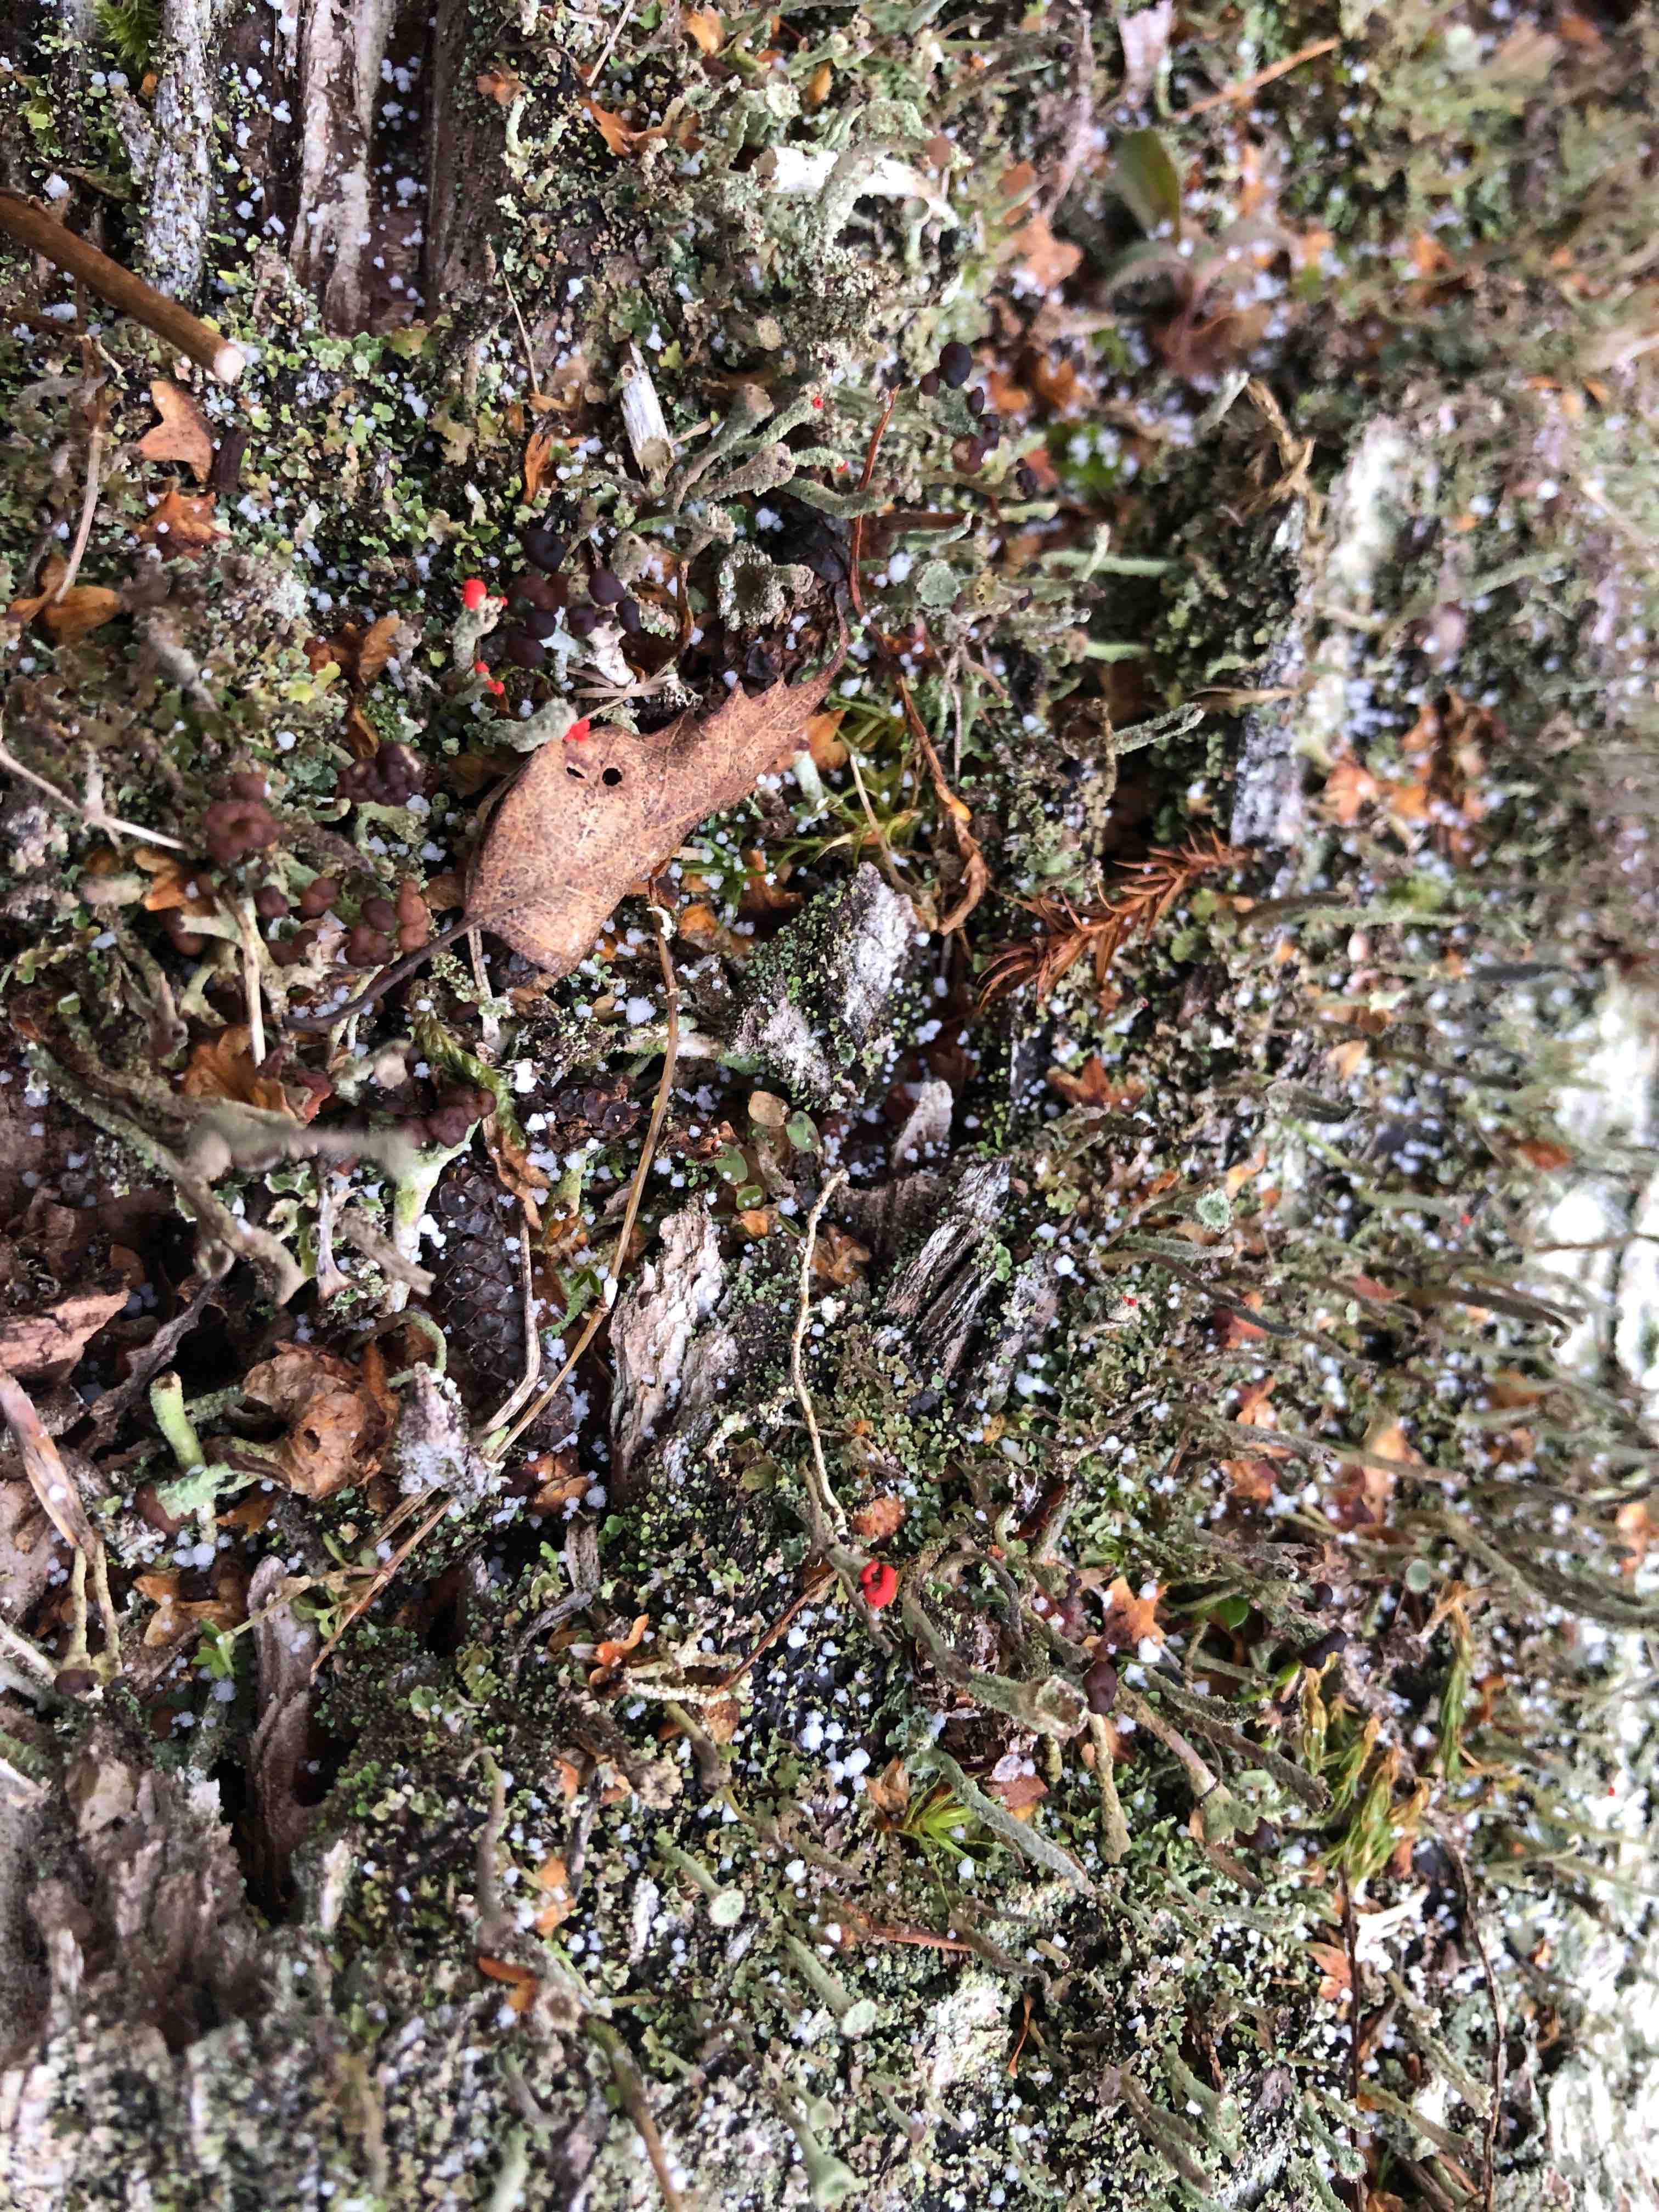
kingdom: Fungi
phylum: Ascomycota
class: Lecanoromycetes
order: Lecanorales
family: Cladoniaceae
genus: Cladonia
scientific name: Cladonia floerkeana
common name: lakrød bægerlav
